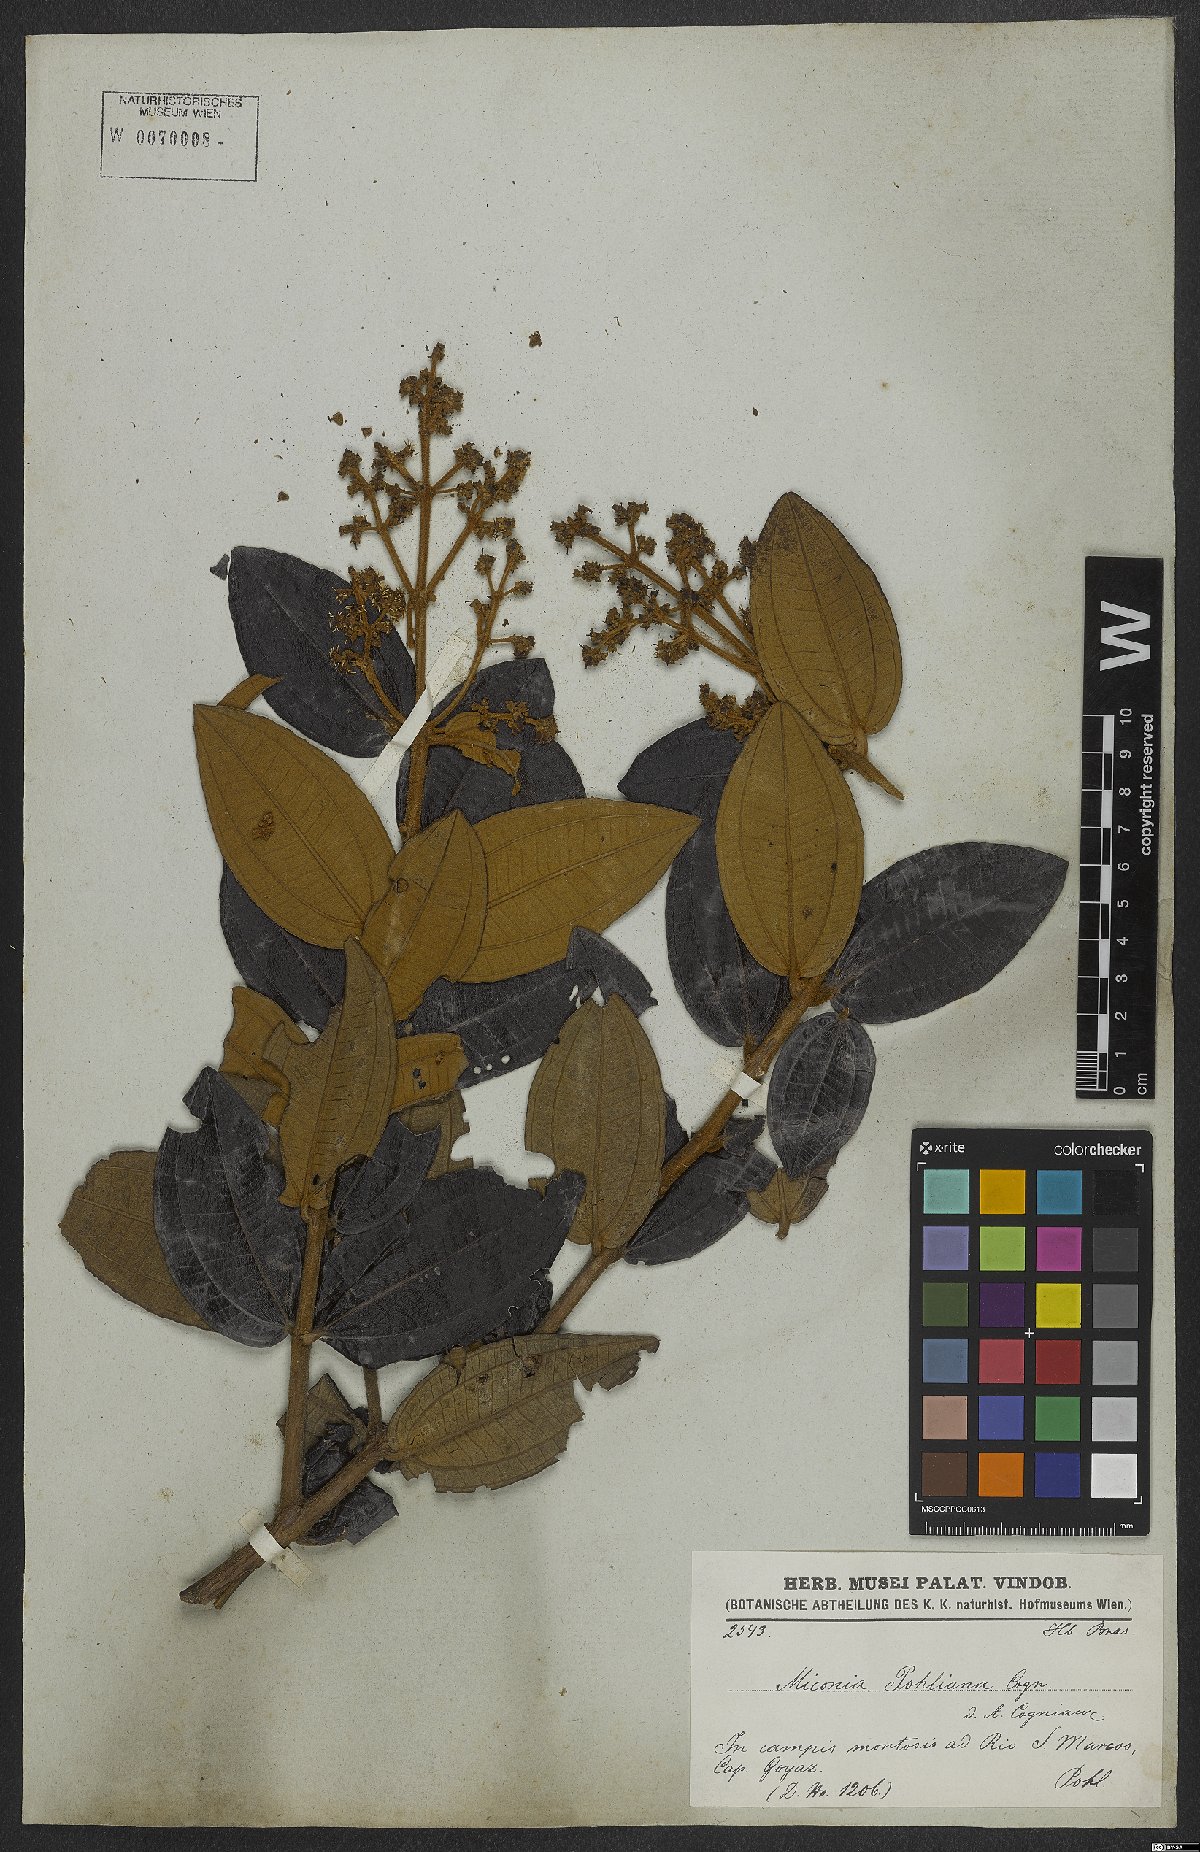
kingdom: Plantae
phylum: Tracheophyta
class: Magnoliopsida
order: Myrtales
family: Melastomataceae
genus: Miconia
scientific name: Miconia leucocarpa
